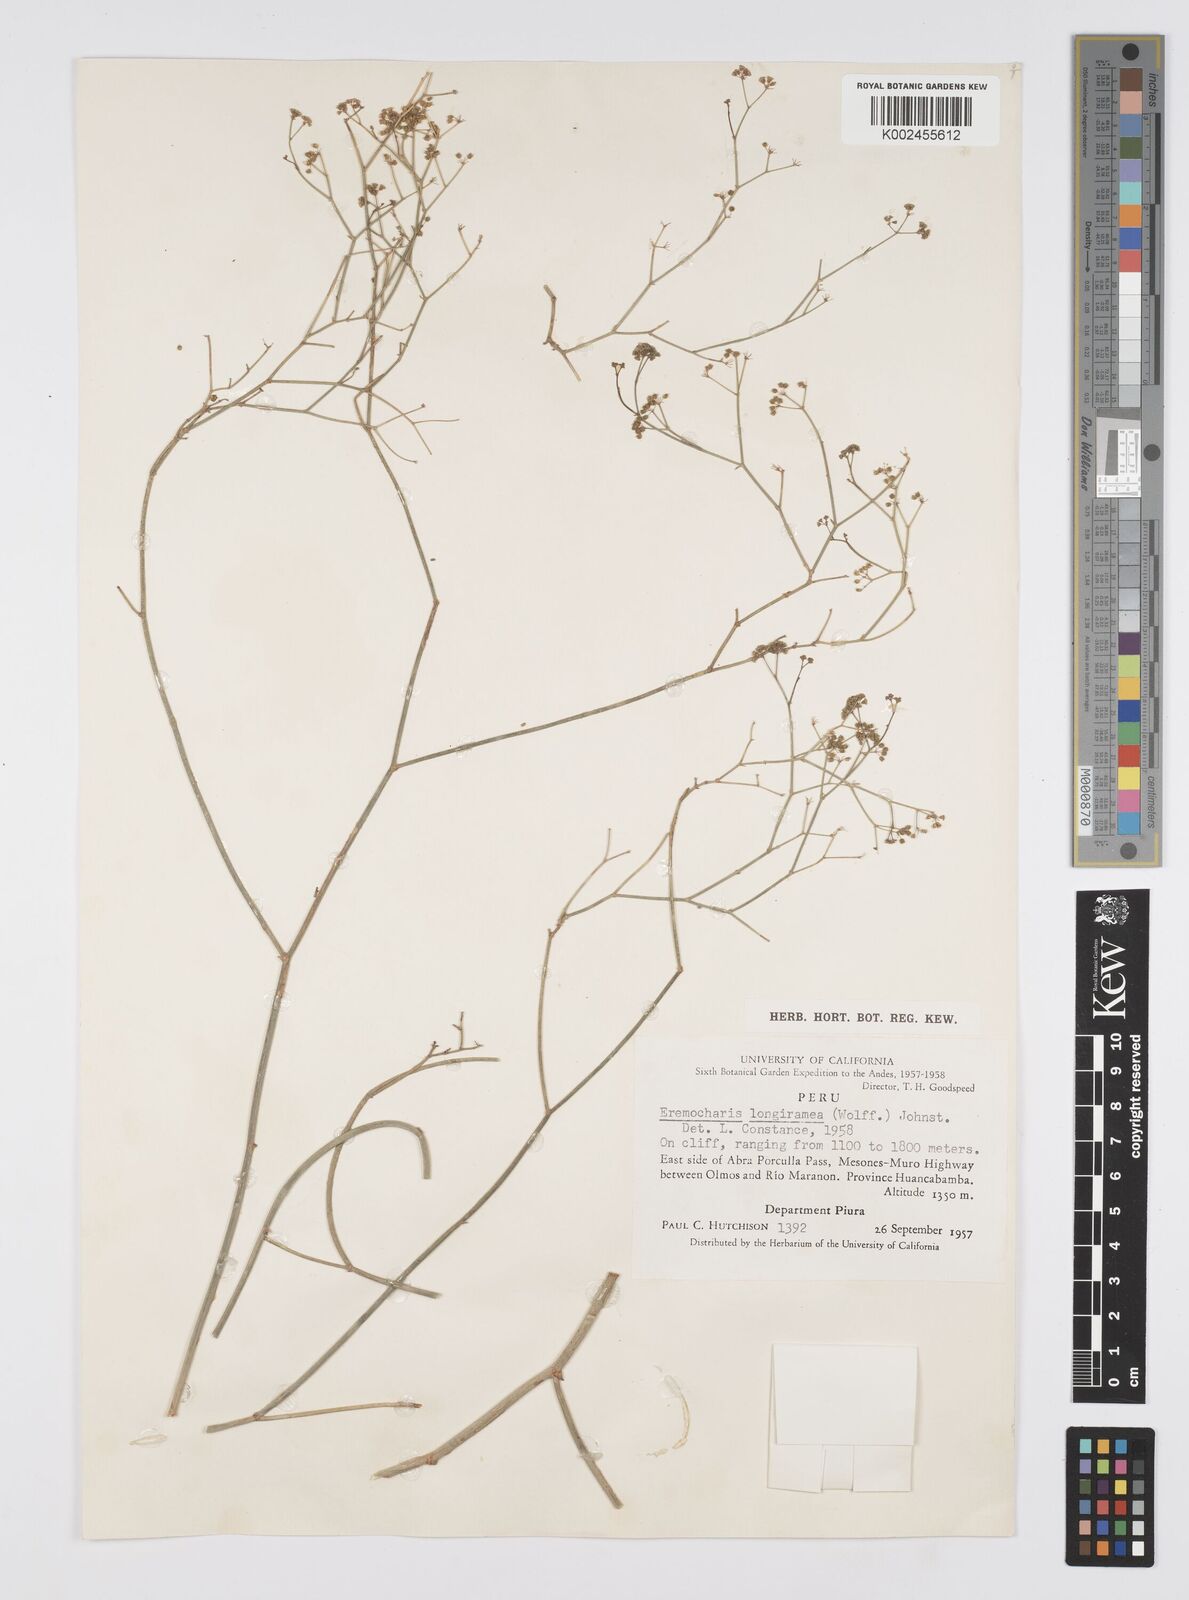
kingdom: Plantae
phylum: Tracheophyta
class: Magnoliopsida
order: Apiales
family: Apiaceae
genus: Eremocharis
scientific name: Eremocharis longiramea
